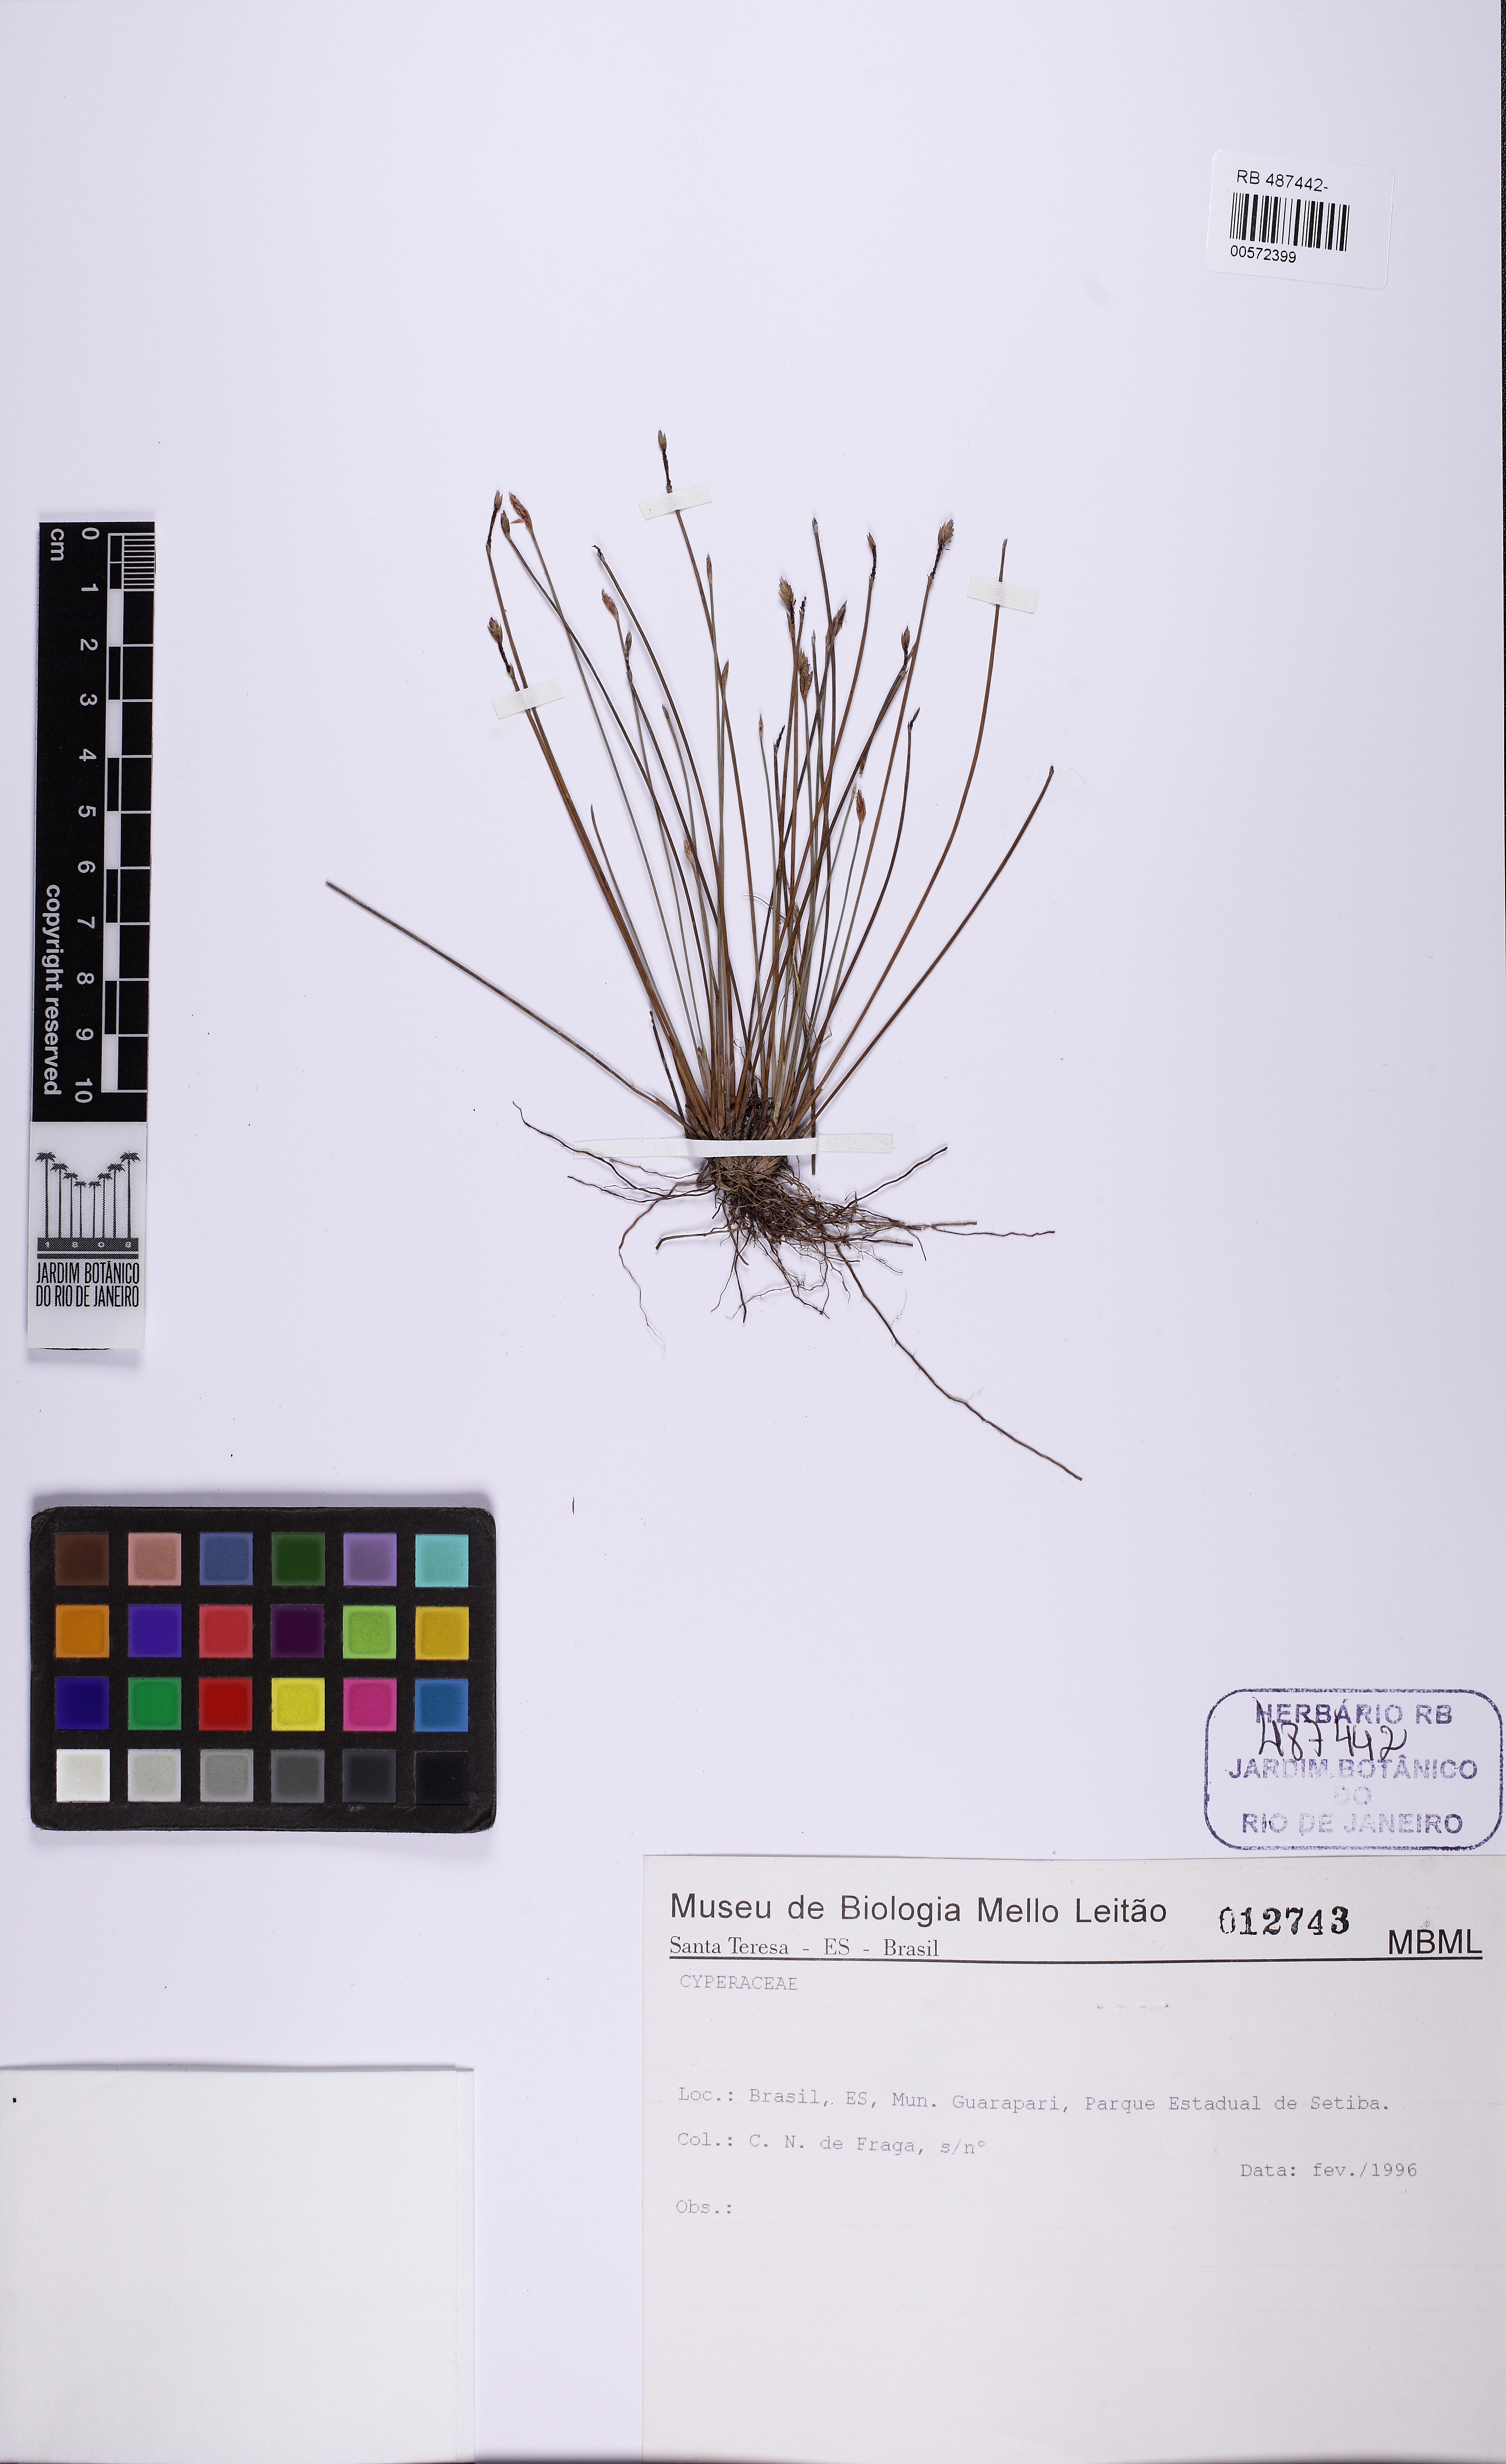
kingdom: Plantae
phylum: Tracheophyta
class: Liliopsida
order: Poales
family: Cyperaceae
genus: Eleocharis
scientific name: Eleocharis
